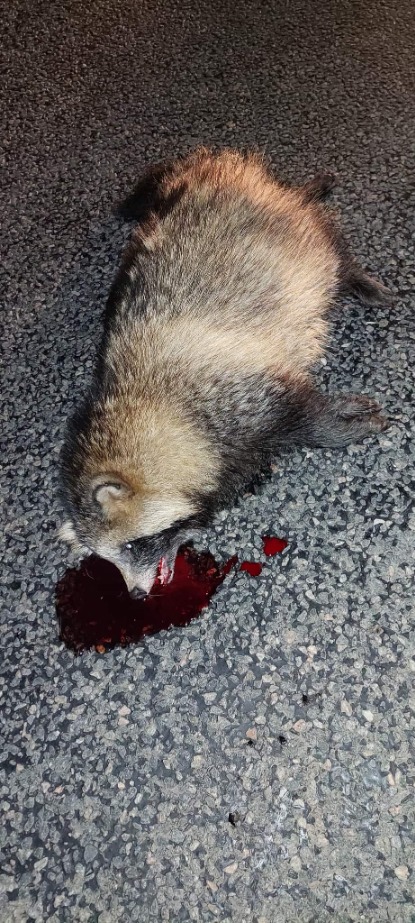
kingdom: Animalia
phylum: Chordata
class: Mammalia
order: Carnivora
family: Canidae
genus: Nyctereutes
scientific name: Nyctereutes procyonoides
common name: Mårhund
